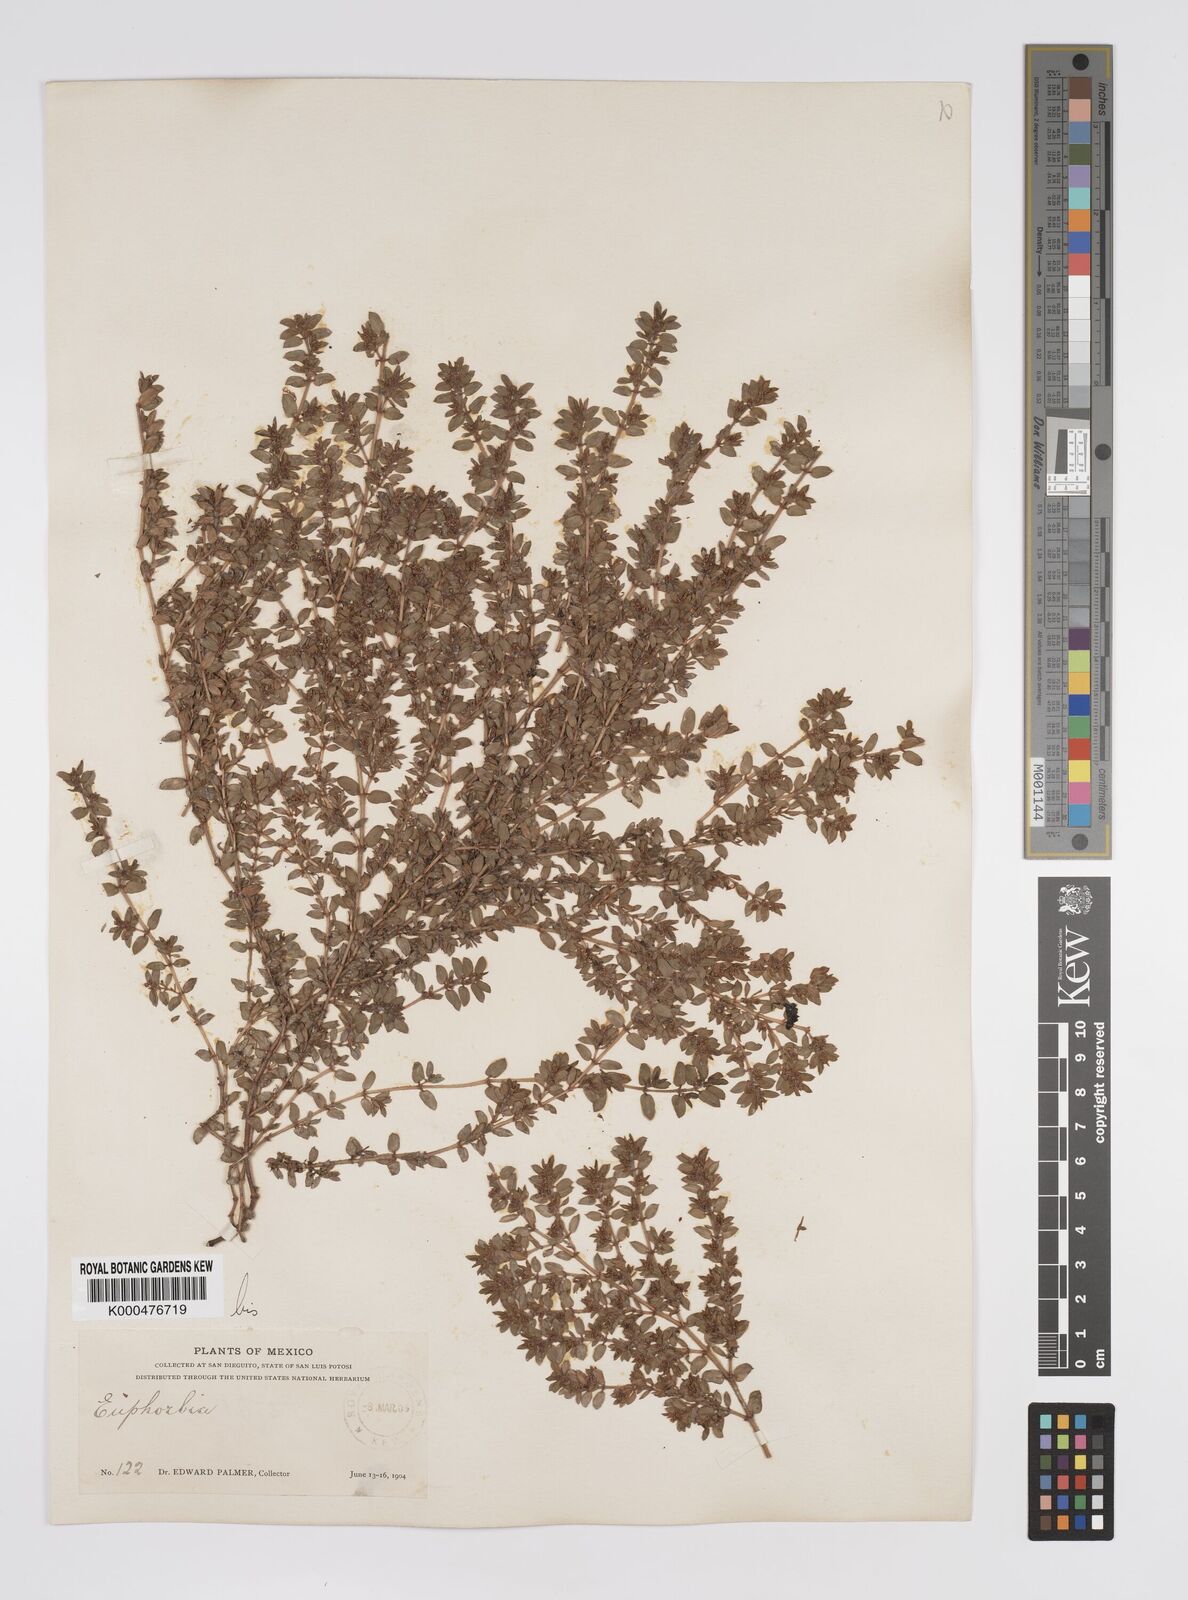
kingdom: Plantae
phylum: Tracheophyta
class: Magnoliopsida
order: Malpighiales
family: Euphorbiaceae
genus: Euphorbia
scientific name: Euphorbia
